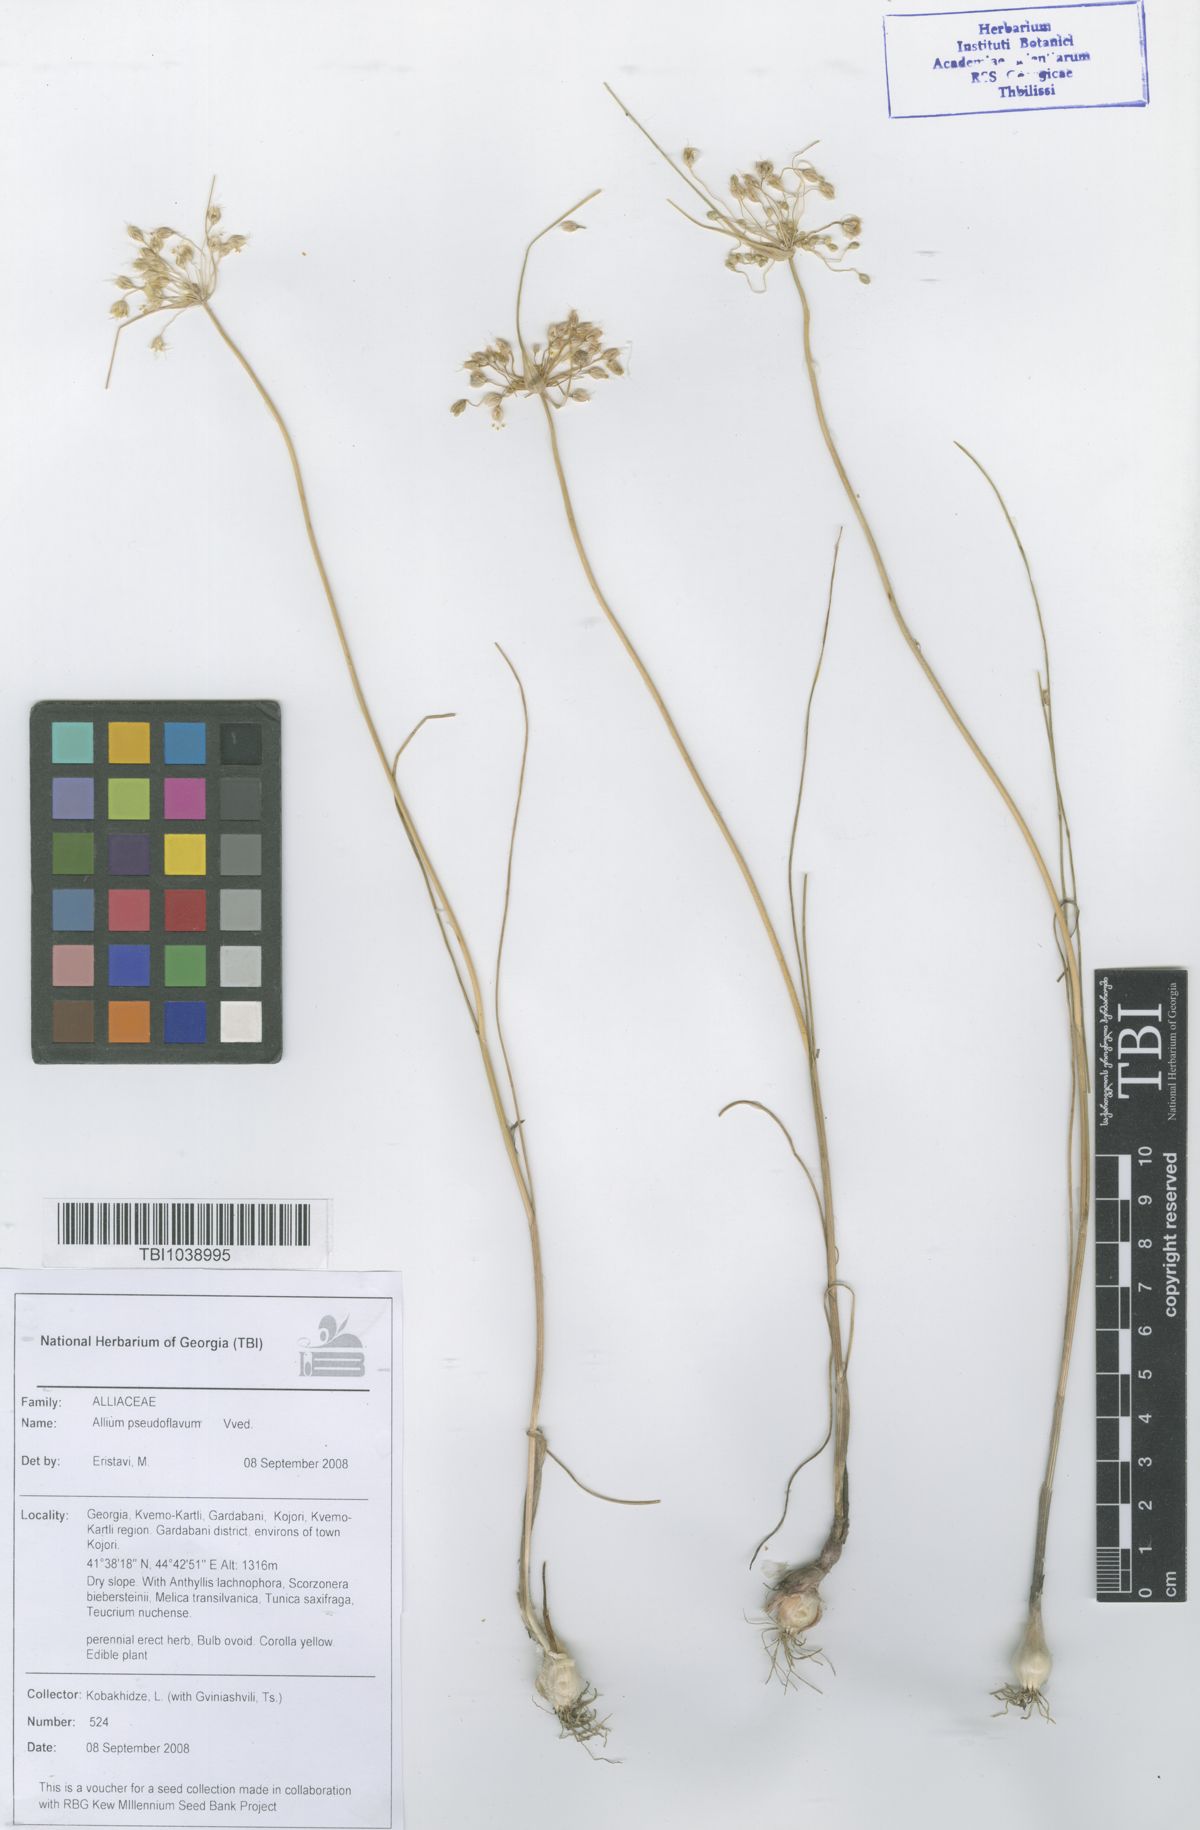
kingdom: Plantae
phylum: Tracheophyta
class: Liliopsida
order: Asparagales
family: Amaryllidaceae
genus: Allium
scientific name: Allium pseudoflavum
